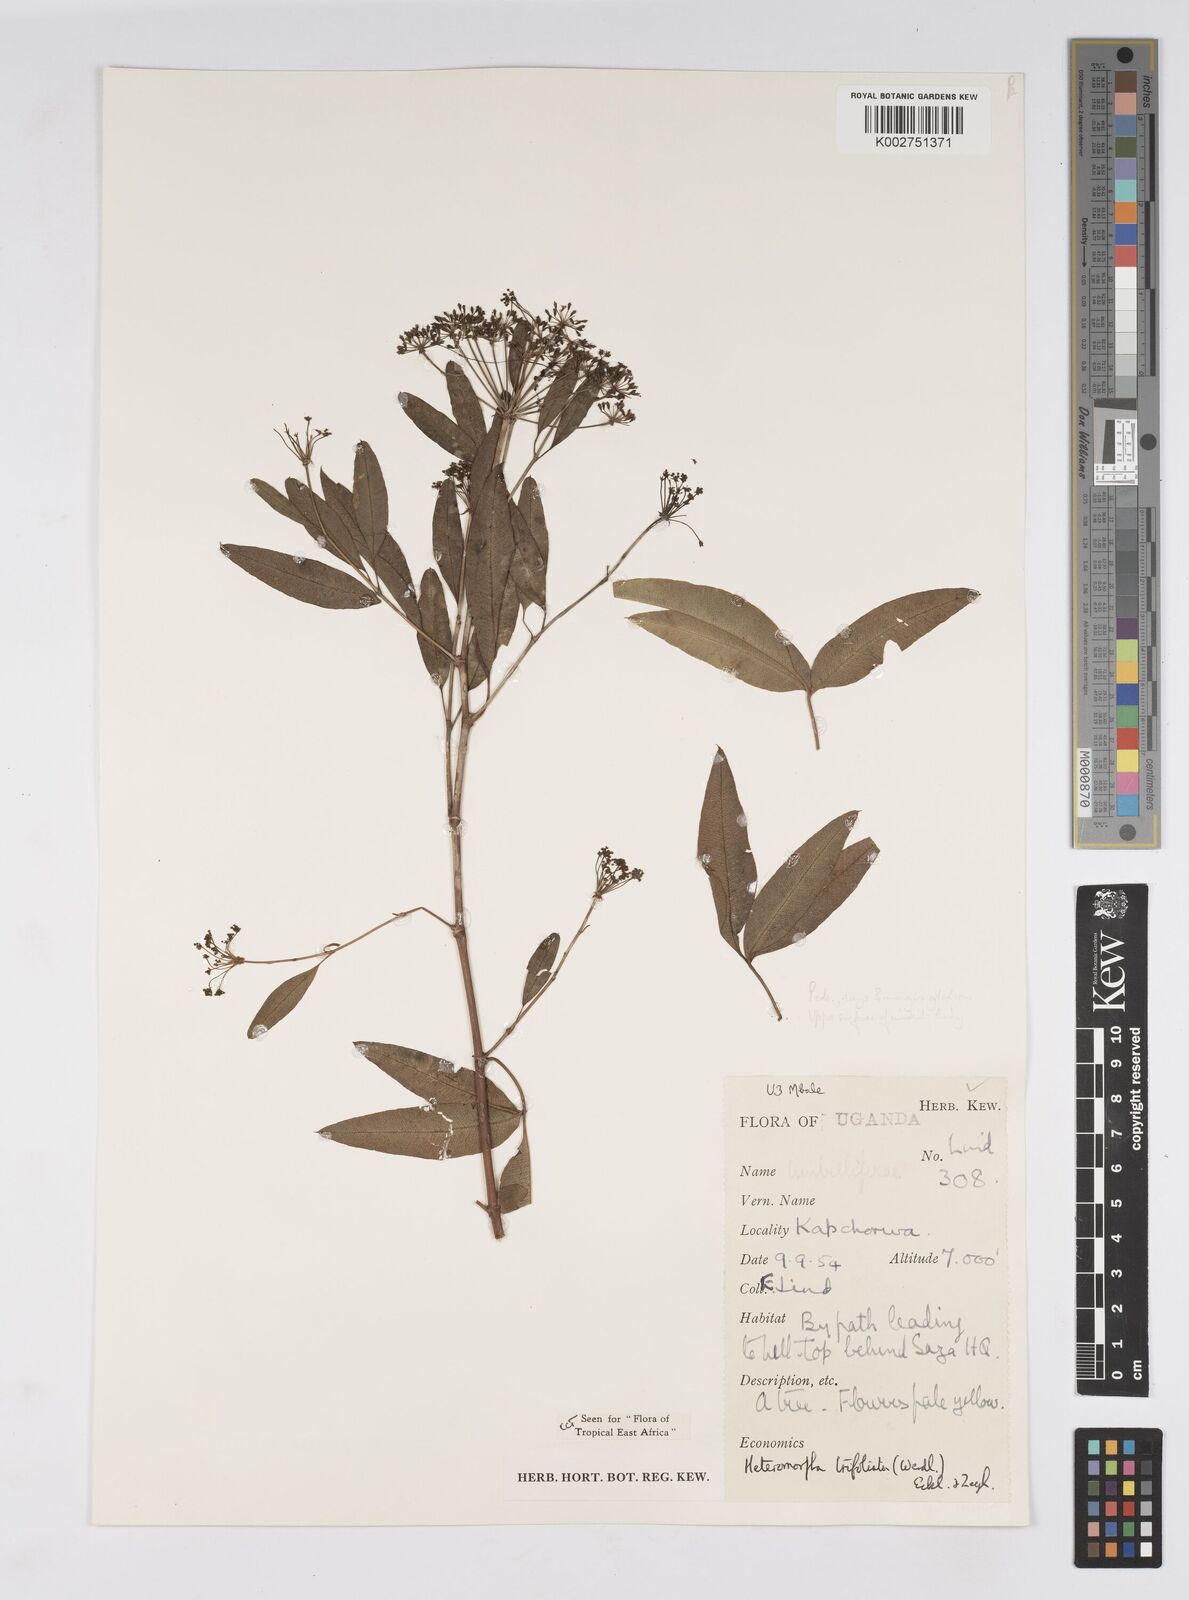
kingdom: Plantae
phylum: Tracheophyta
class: Magnoliopsida
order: Apiales
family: Apiaceae
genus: Heteromorpha
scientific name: Heteromorpha arborescens
